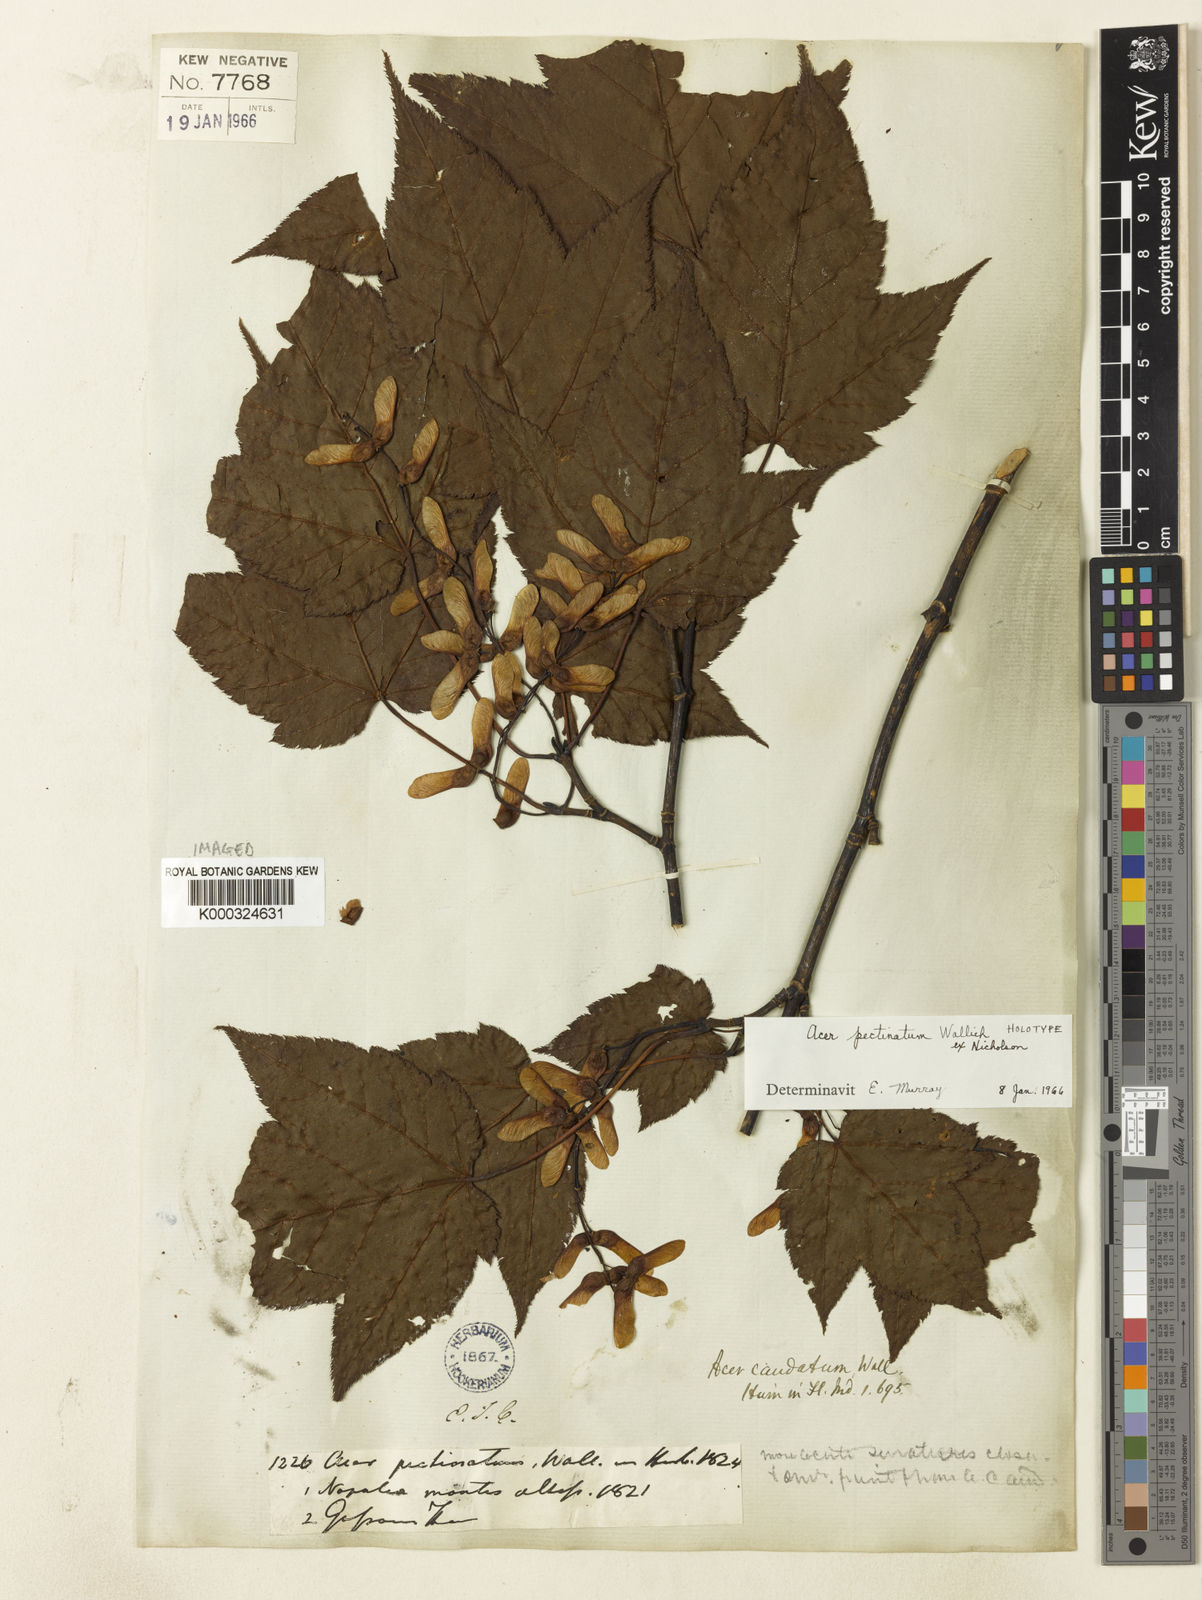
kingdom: Plantae
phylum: Tracheophyta
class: Magnoliopsida
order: Sapindales
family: Sapindaceae
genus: Acer
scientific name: Acer acuminatum
